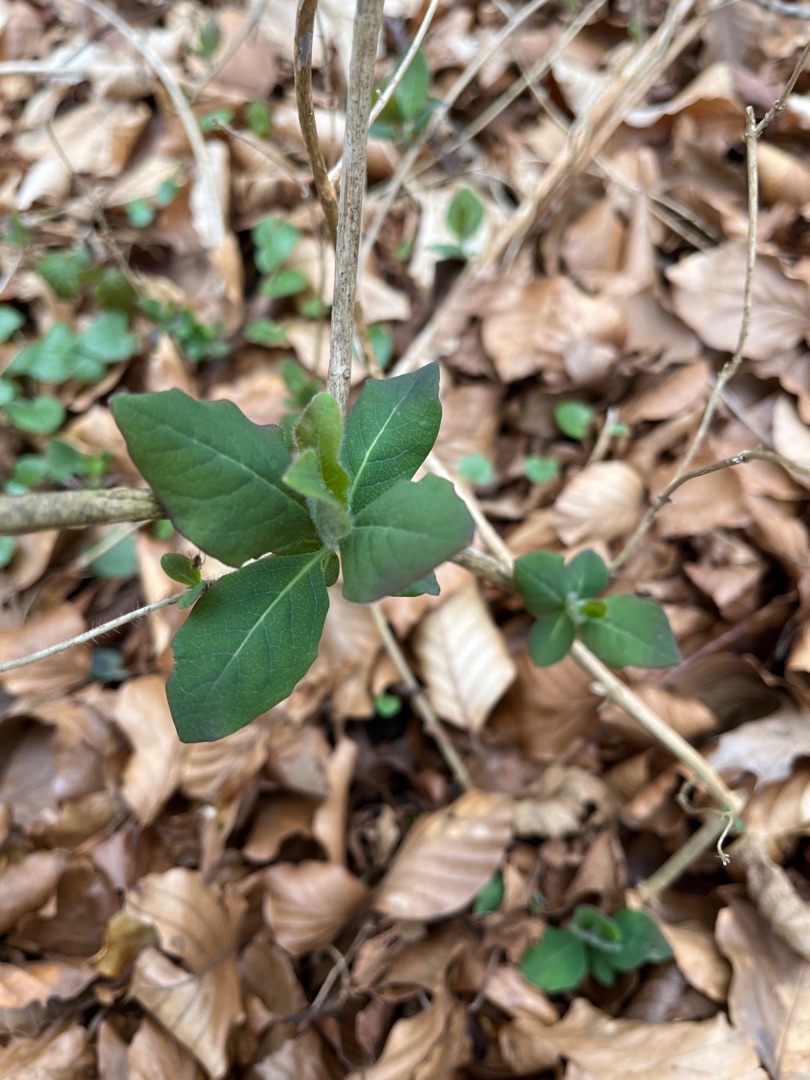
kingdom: Plantae
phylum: Tracheophyta
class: Magnoliopsida
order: Dipsacales
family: Caprifoliaceae
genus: Lonicera
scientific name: Lonicera periclymenum
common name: Almindelig gedeblad
